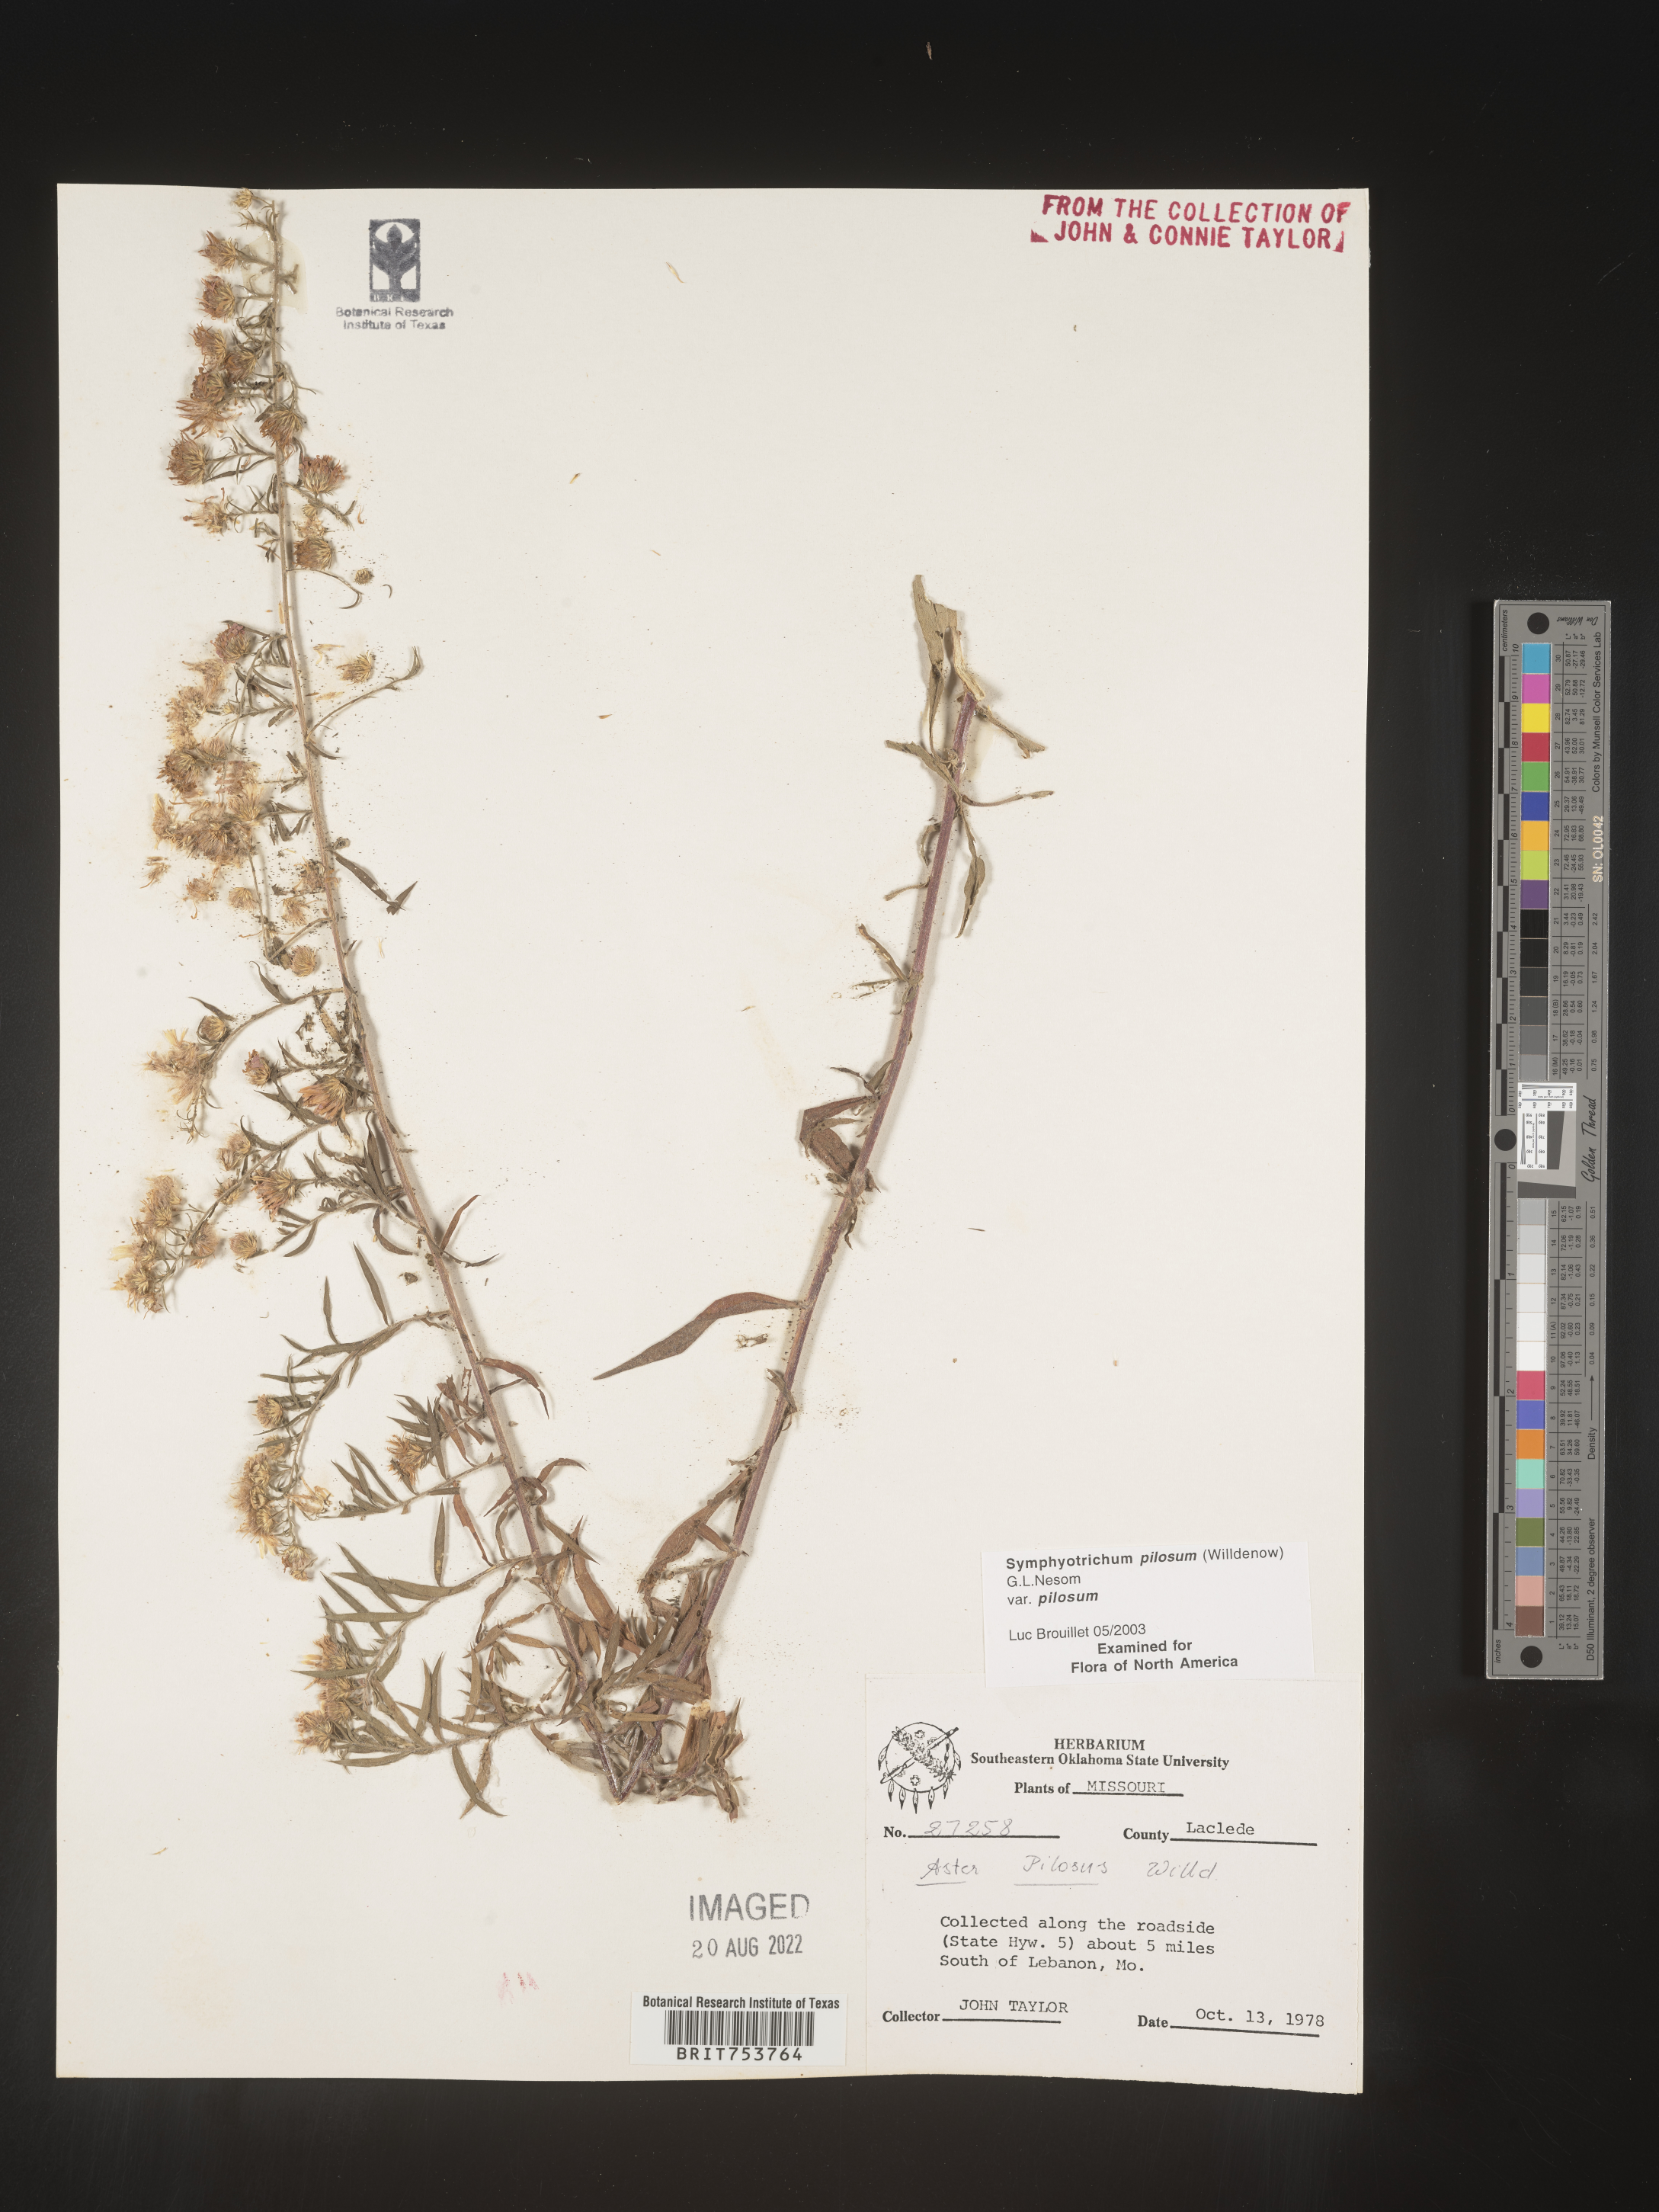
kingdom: Plantae
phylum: Tracheophyta
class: Magnoliopsida
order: Asterales
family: Asteraceae
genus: Symphyotrichum
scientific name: Symphyotrichum pilosum
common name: Awl aster
